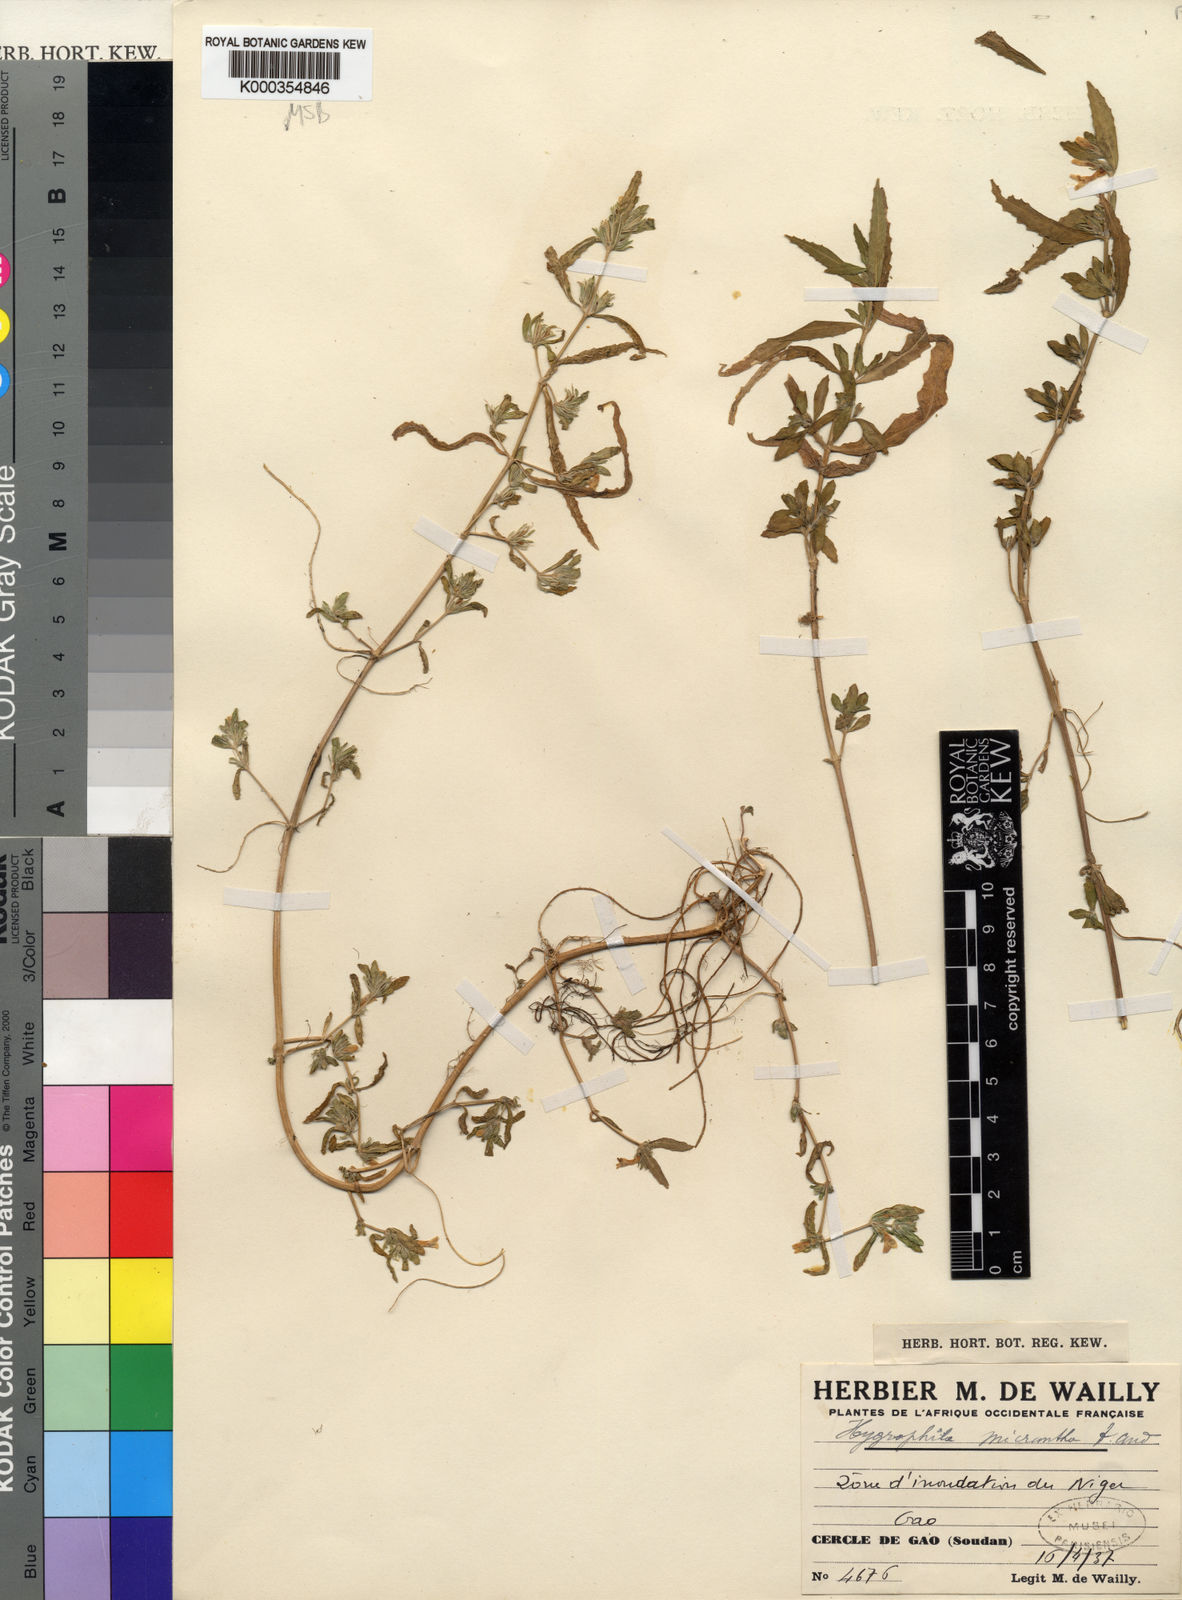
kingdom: Plantae
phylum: Tracheophyta
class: Magnoliopsida
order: Lamiales
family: Acanthaceae
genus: Hygrophila
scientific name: Hygrophila micrantha
